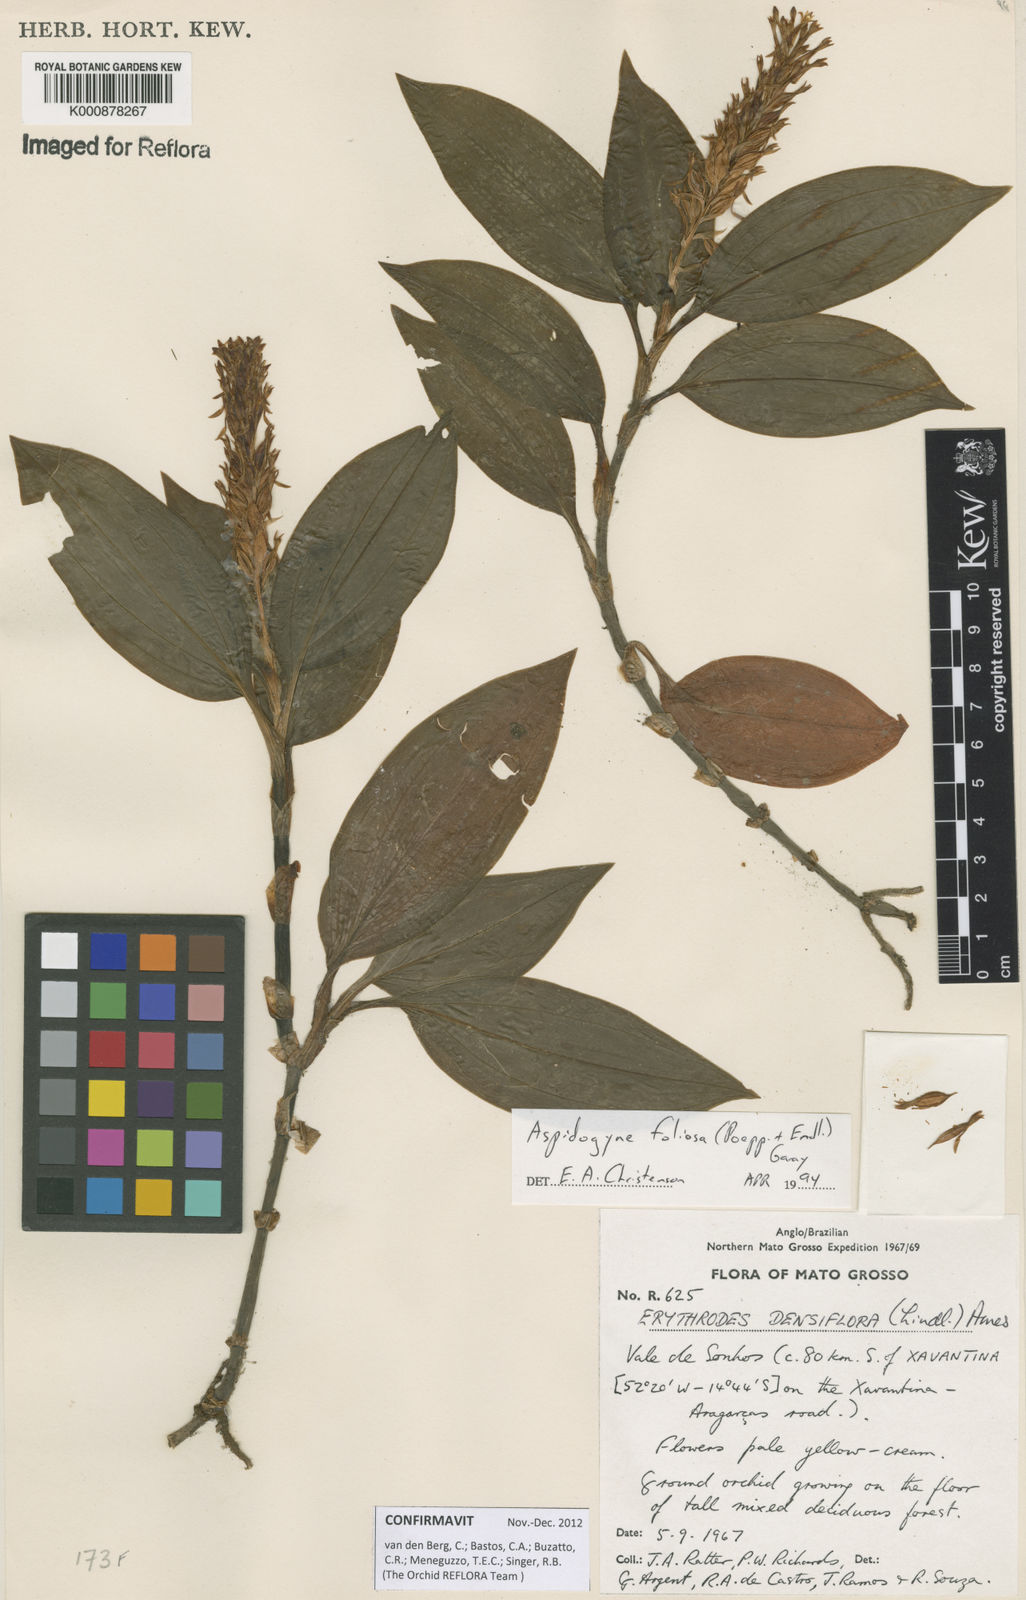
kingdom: Plantae
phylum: Tracheophyta
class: Liliopsida
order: Asparagales
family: Orchidaceae
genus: Aspidogyne
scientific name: Aspidogyne foliosa
